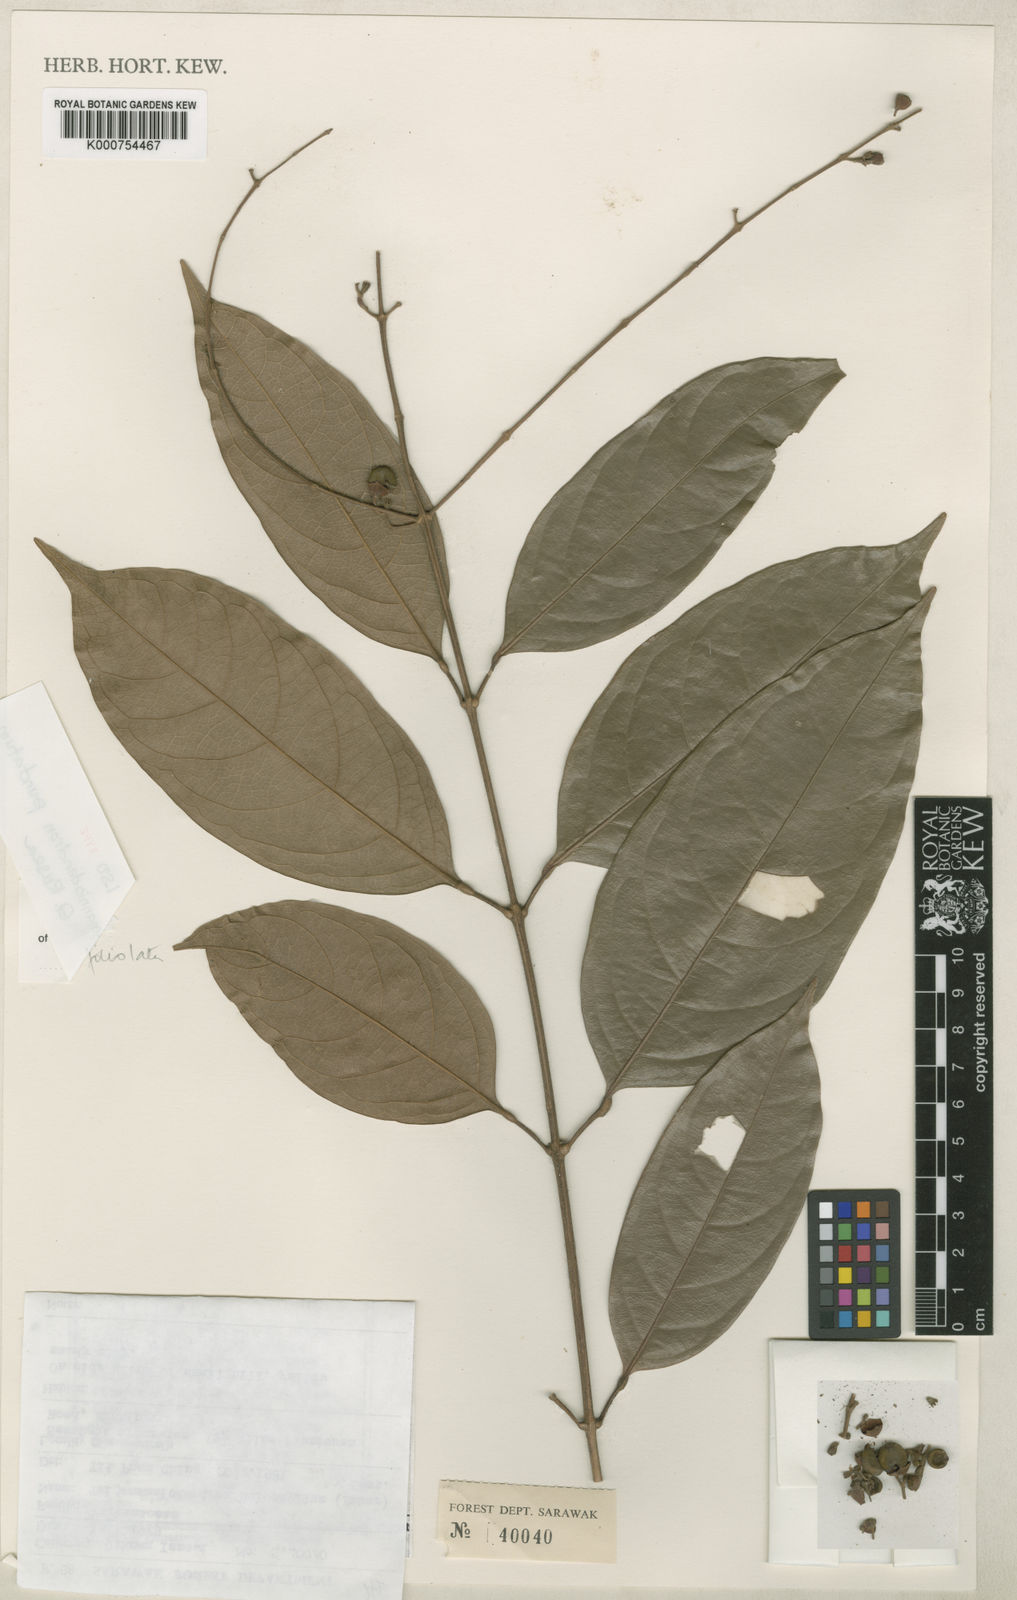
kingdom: Plantae
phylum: Tracheophyta
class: Magnoliopsida
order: Lamiales
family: Lamiaceae
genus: Teijsmanniodendron
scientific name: Teijsmanniodendron punctatum
